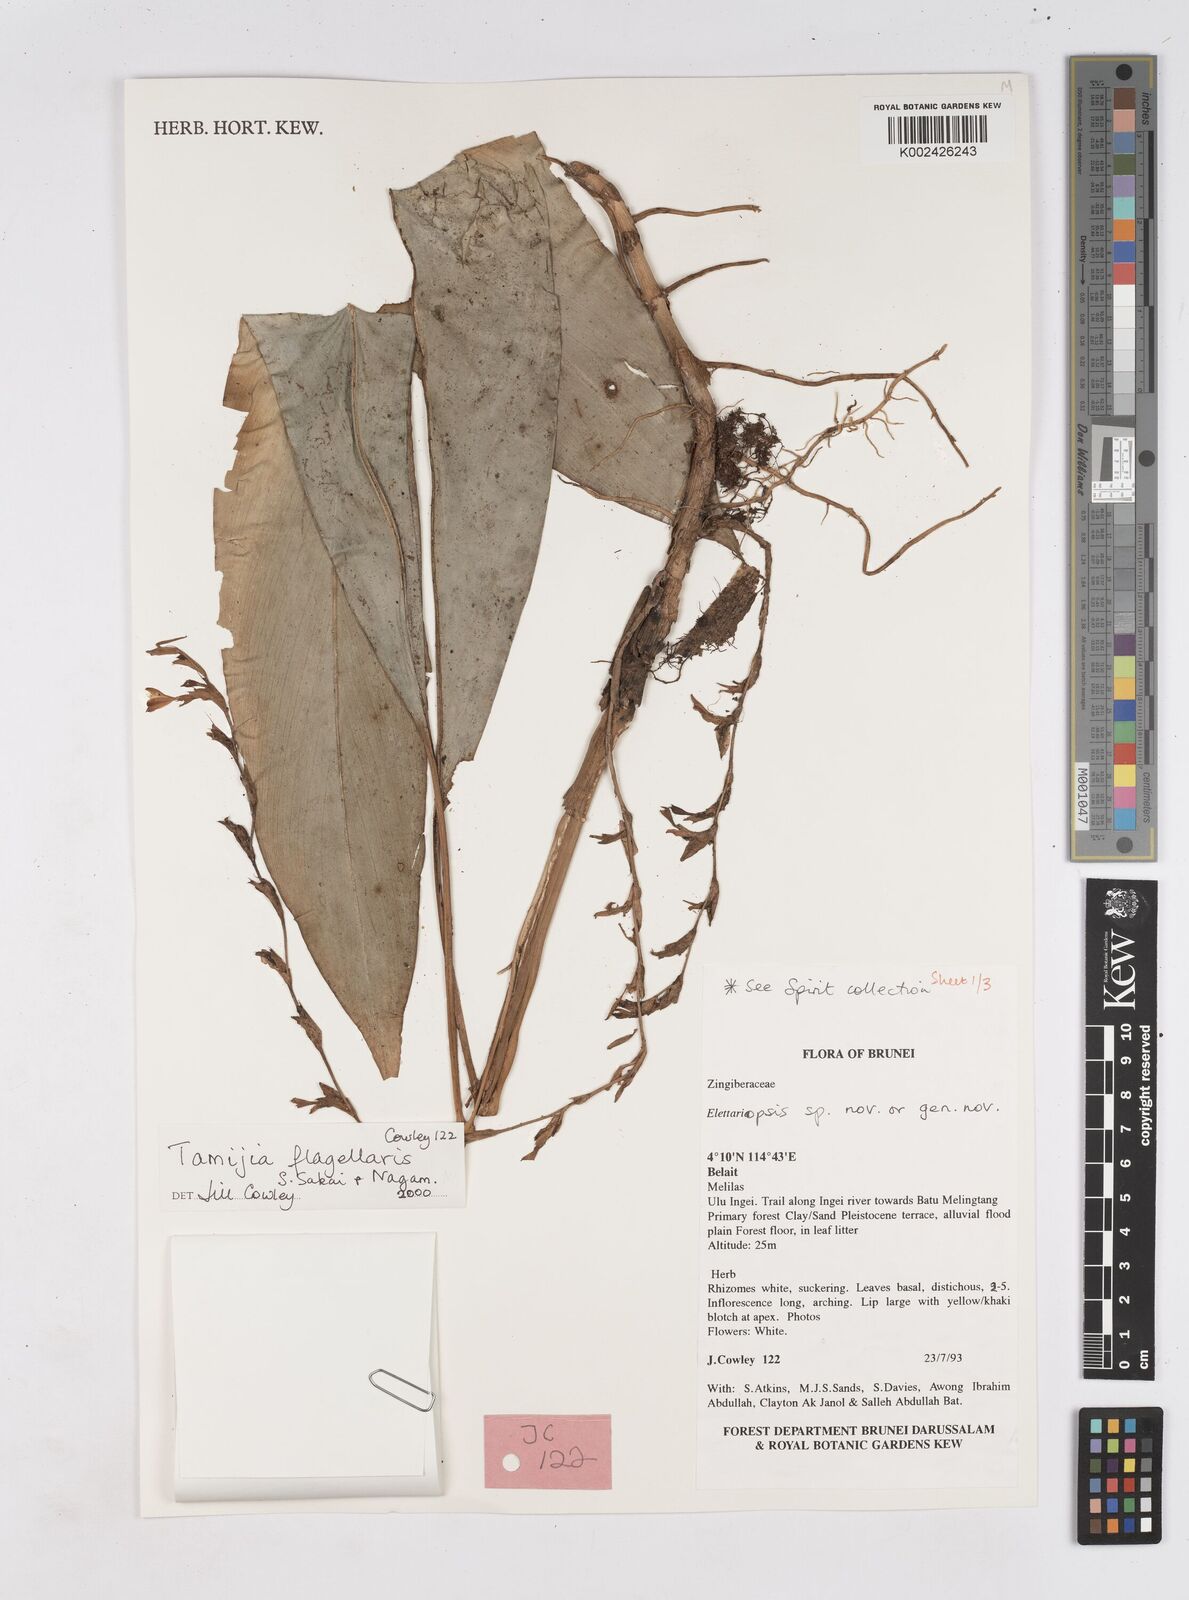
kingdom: Plantae
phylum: Tracheophyta
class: Liliopsida
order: Zingiberales
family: Zingiberaceae
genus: Tamijia
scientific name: Tamijia flagellaris
